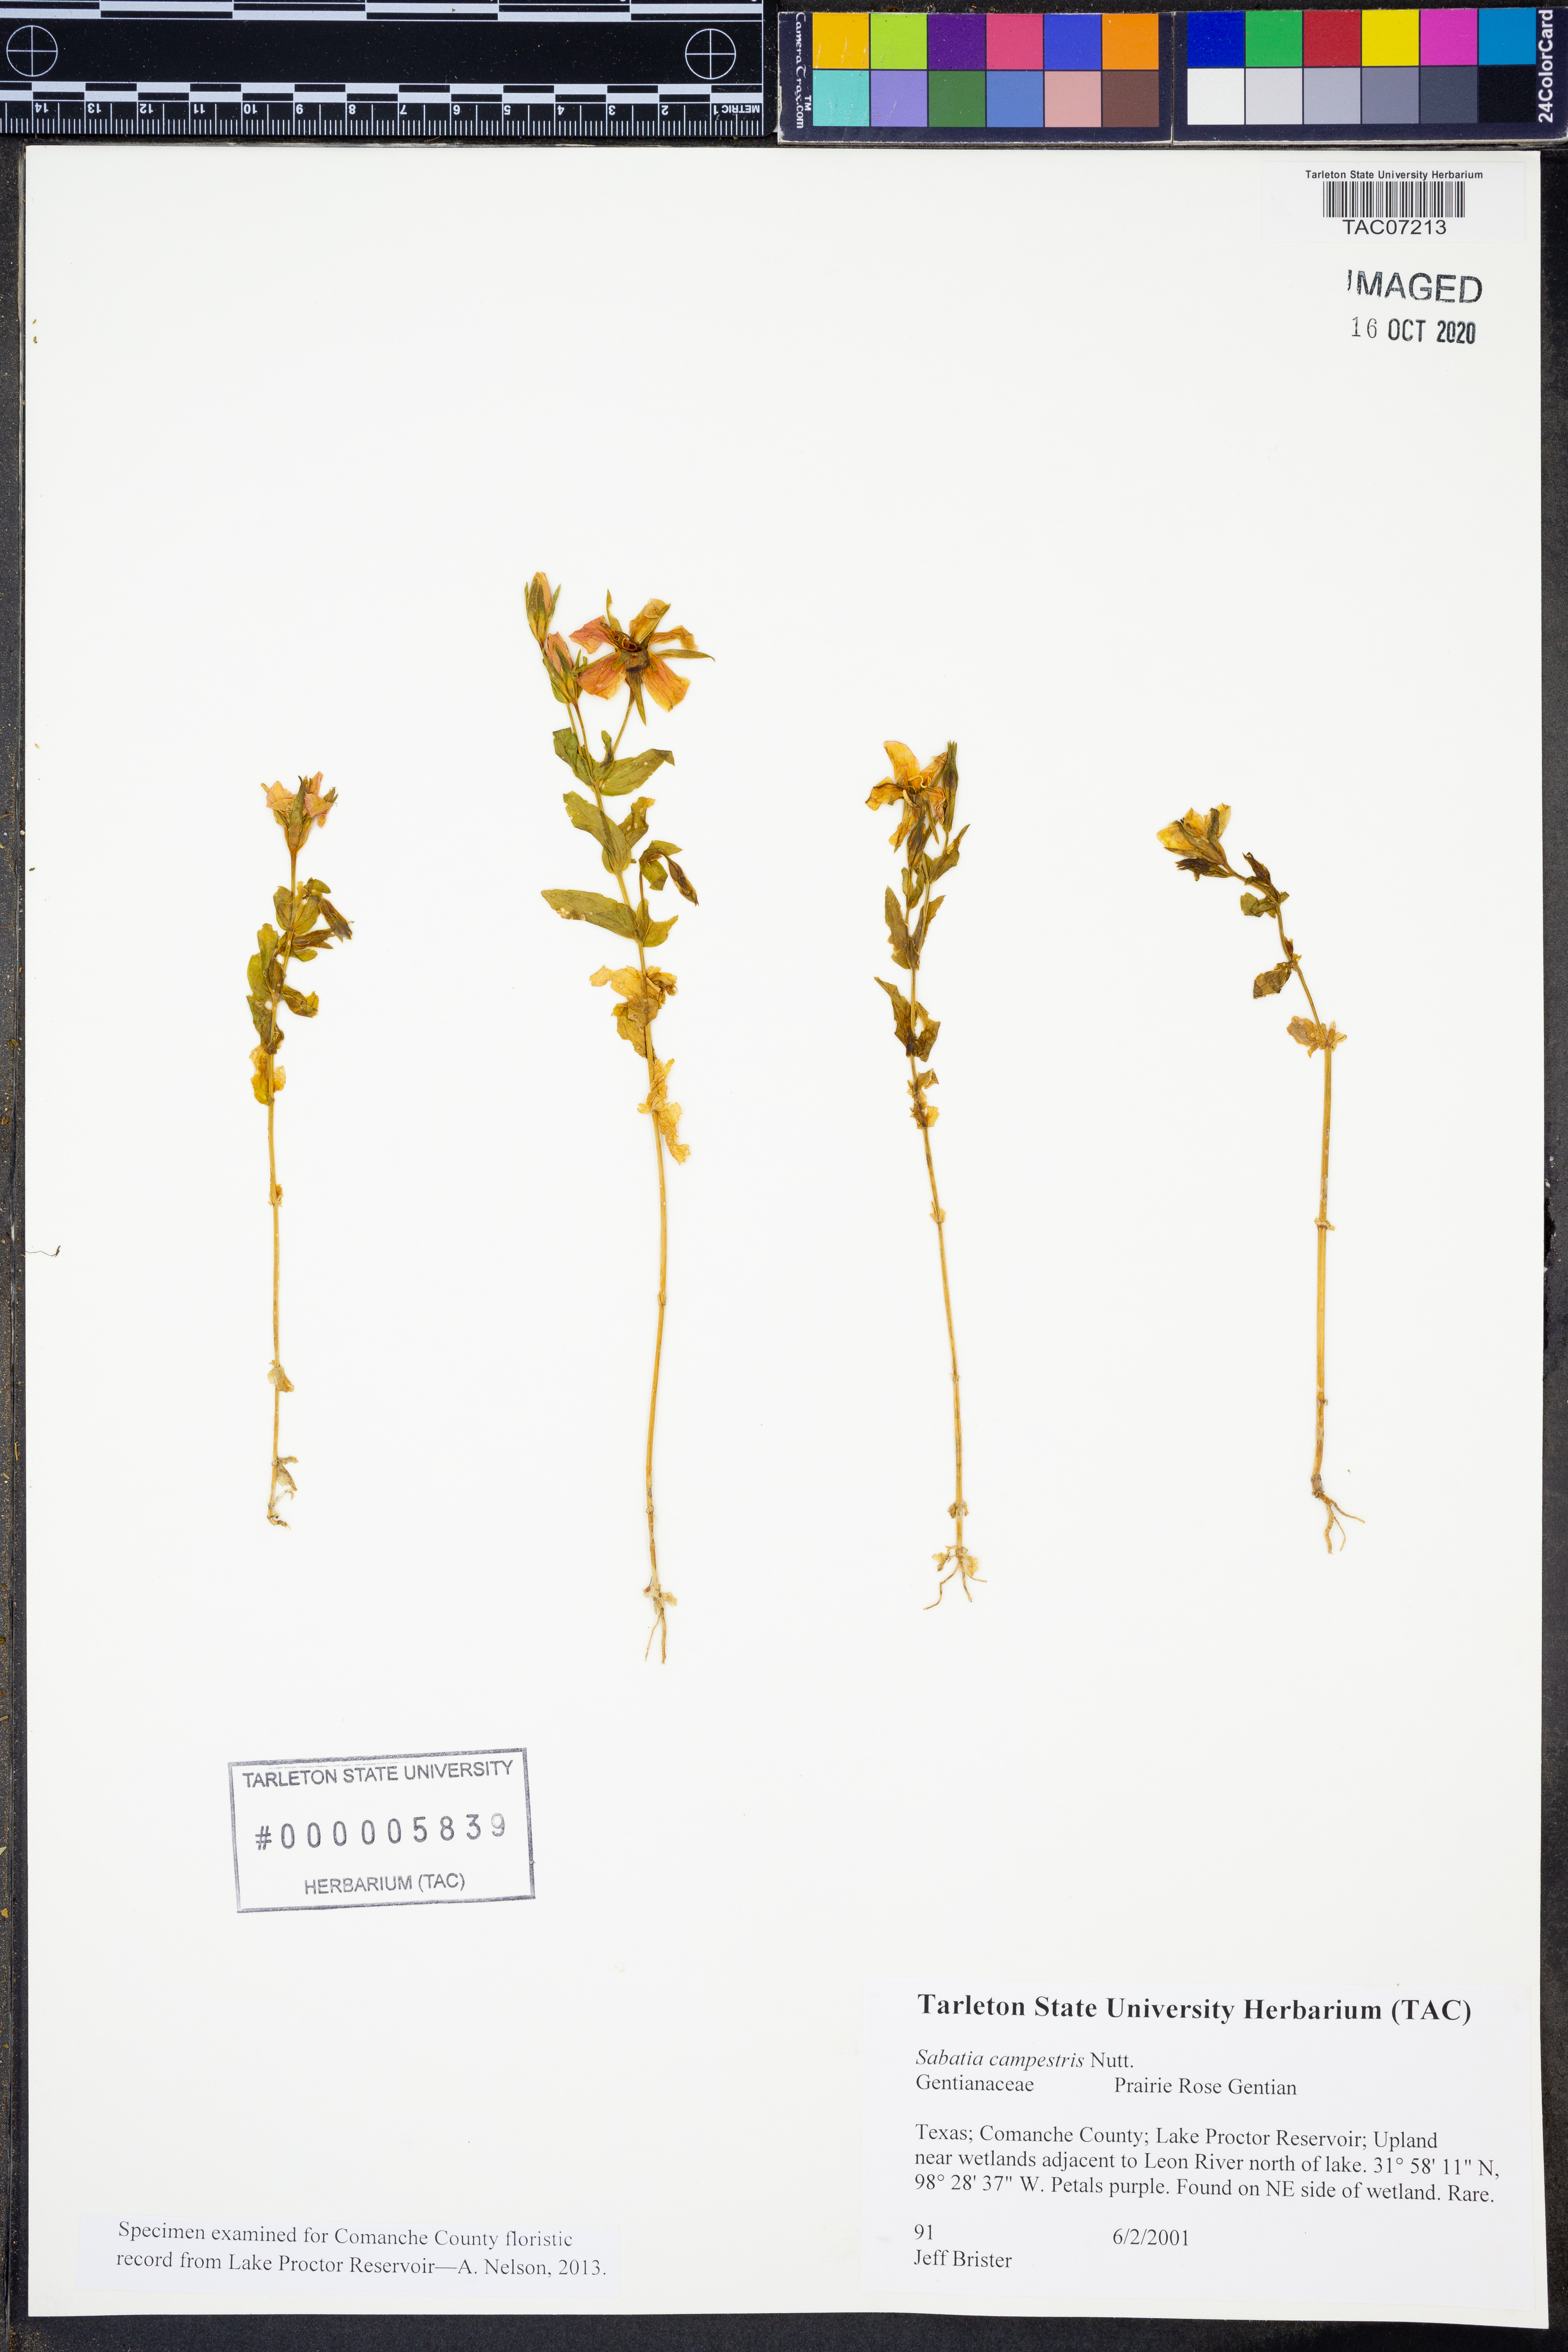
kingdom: Plantae
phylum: Tracheophyta
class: Magnoliopsida
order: Gentianales
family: Gentianaceae
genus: Sabatia
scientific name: Sabatia campestris
